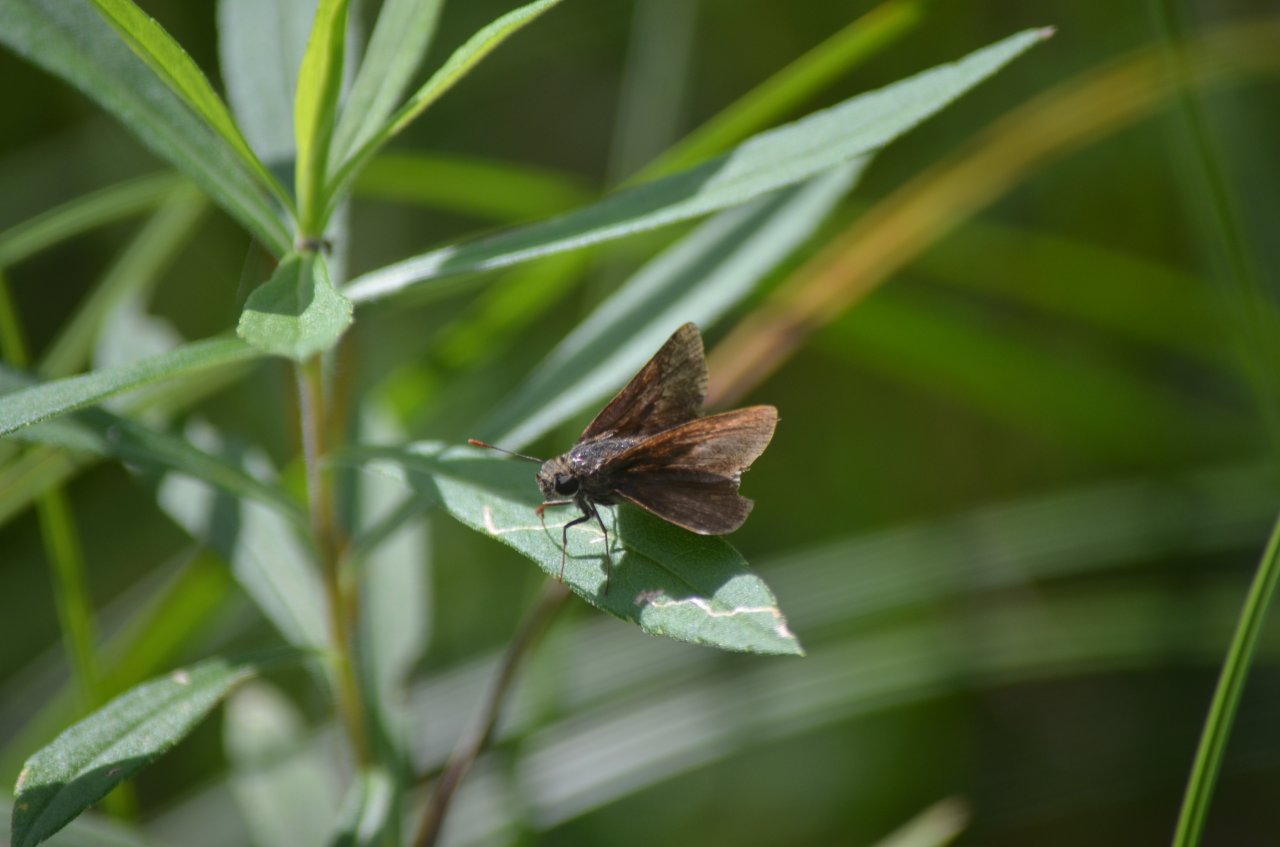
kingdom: Animalia
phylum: Arthropoda
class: Insecta
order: Lepidoptera
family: Hesperiidae
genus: Euphyes
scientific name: Euphyes vestris
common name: Dun Skipper
